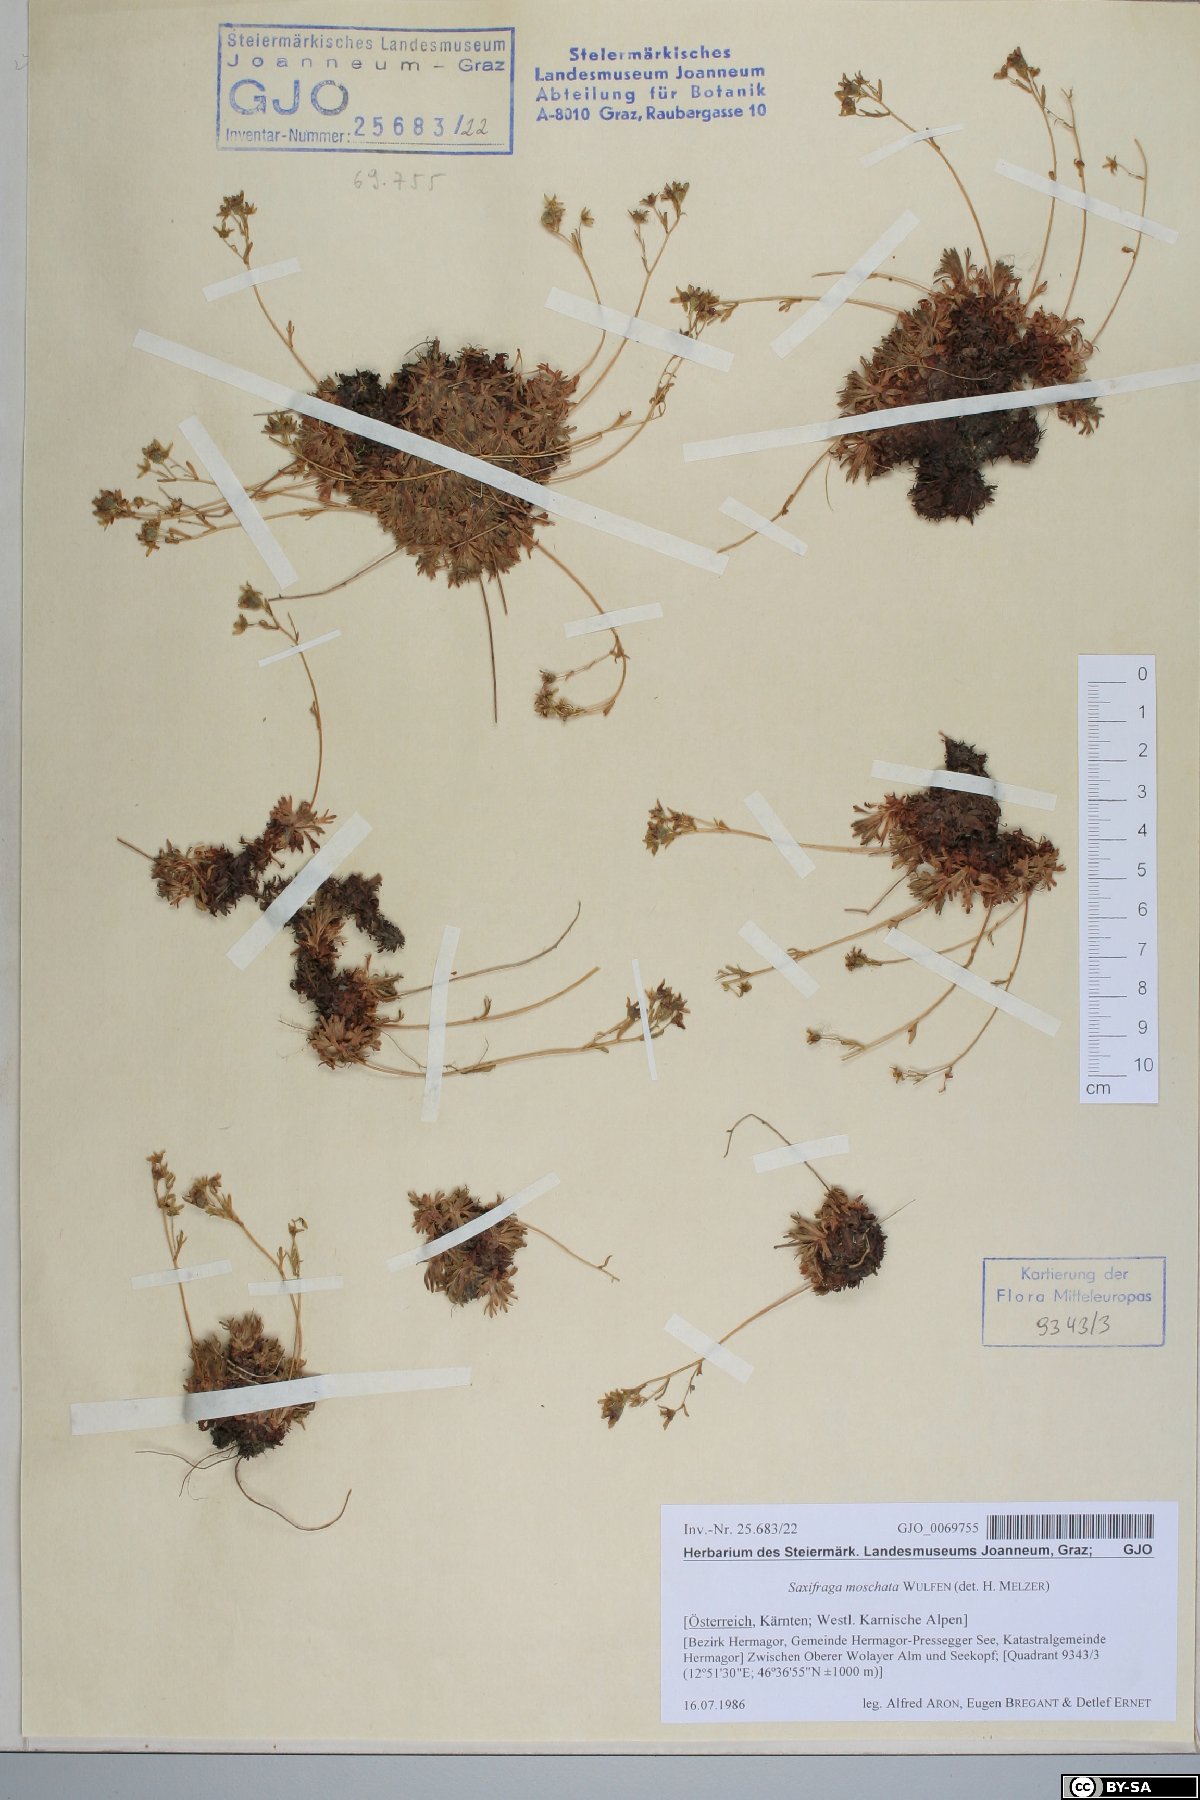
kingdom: Plantae
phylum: Tracheophyta
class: Magnoliopsida
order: Saxifragales
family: Saxifragaceae
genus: Saxifraga
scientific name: Saxifraga moschata
